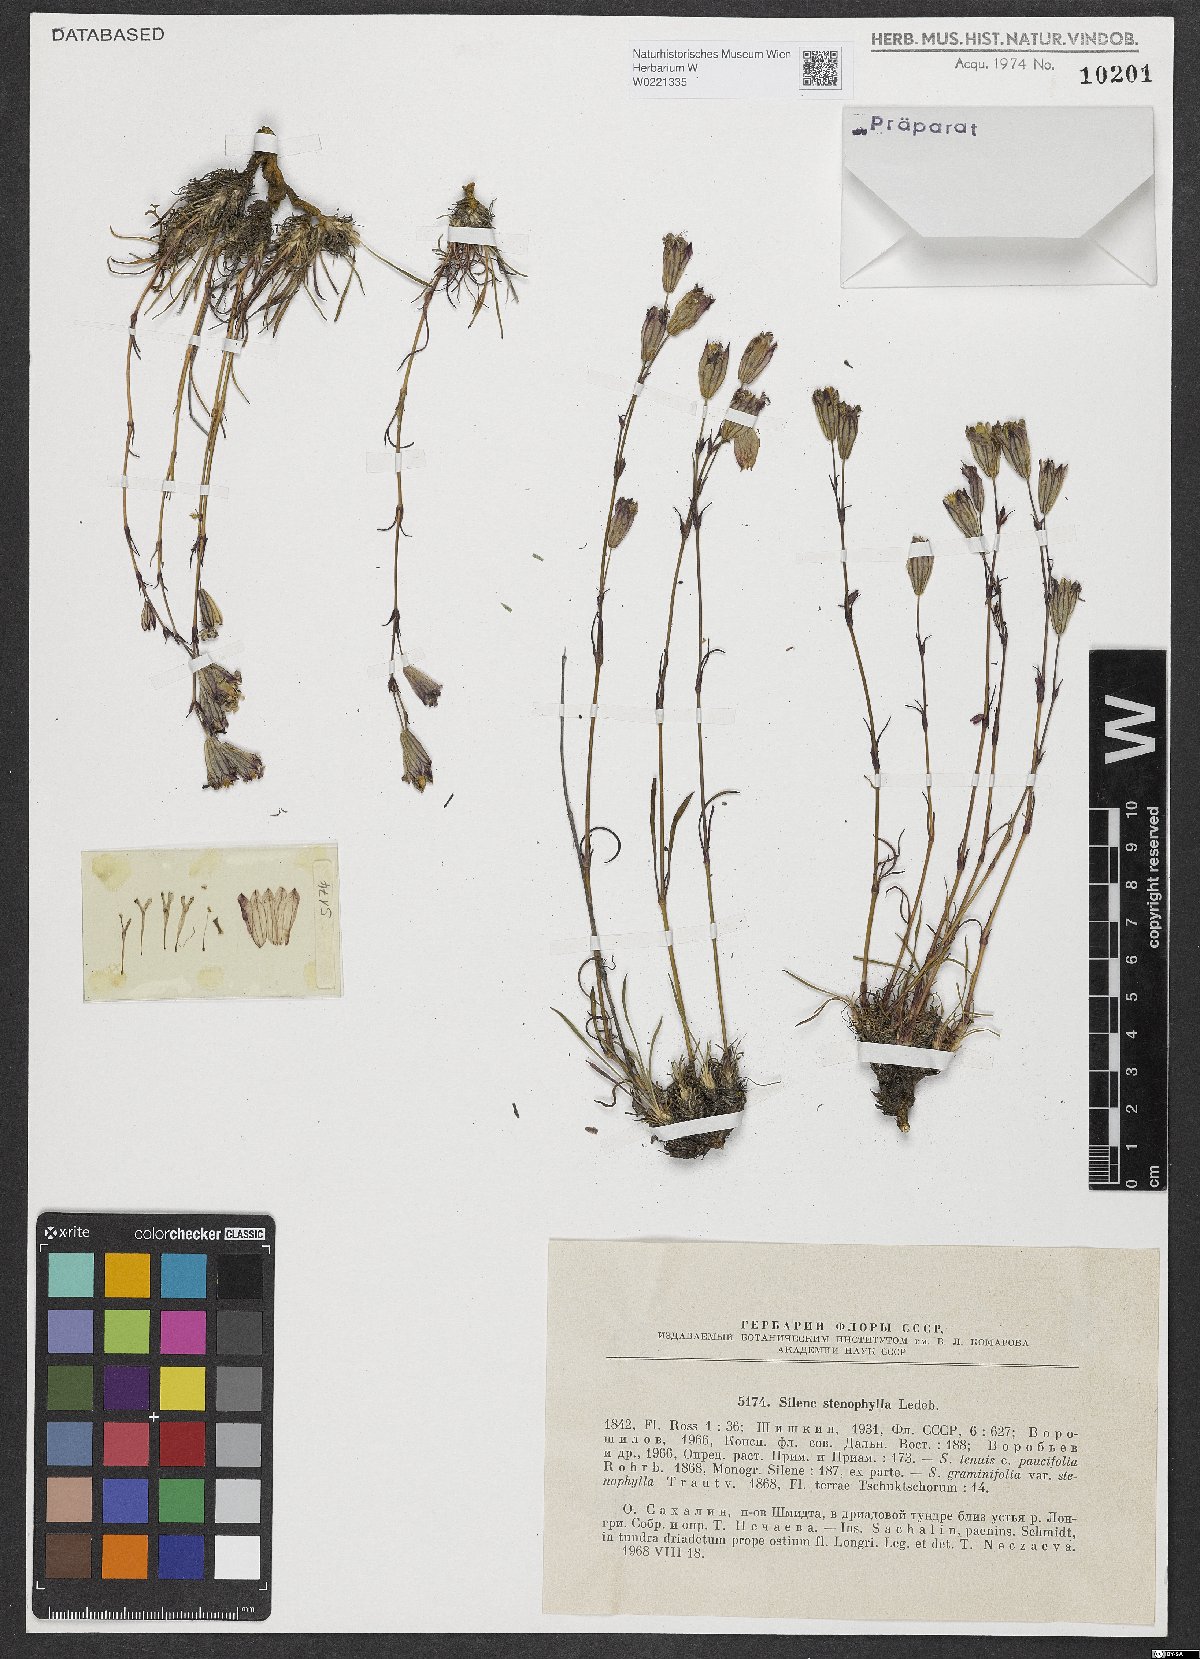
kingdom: Plantae
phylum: Tracheophyta
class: Magnoliopsida
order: Caryophyllales
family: Caryophyllaceae
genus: Silene
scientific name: Silene stenophylla
